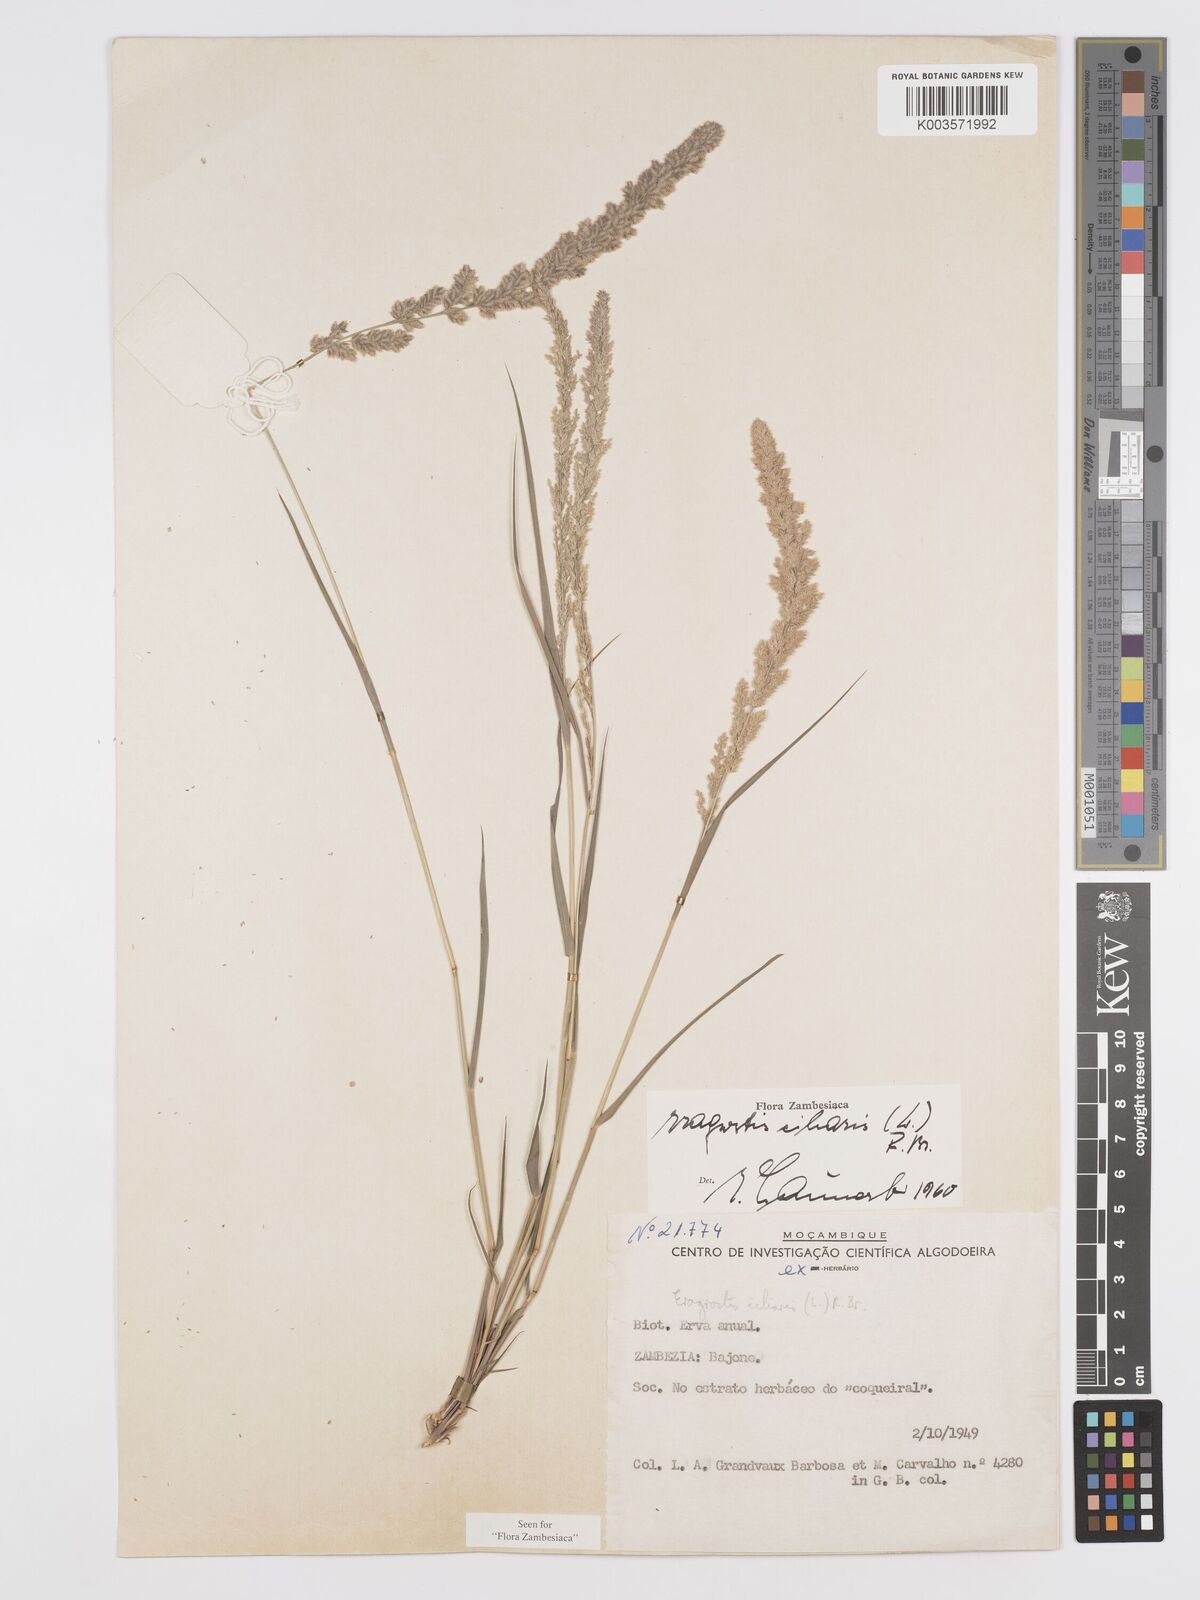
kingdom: Plantae
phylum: Tracheophyta
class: Liliopsida
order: Poales
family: Poaceae
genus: Eragrostis
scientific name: Eragrostis ciliaris
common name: Gophertail lovegrass
